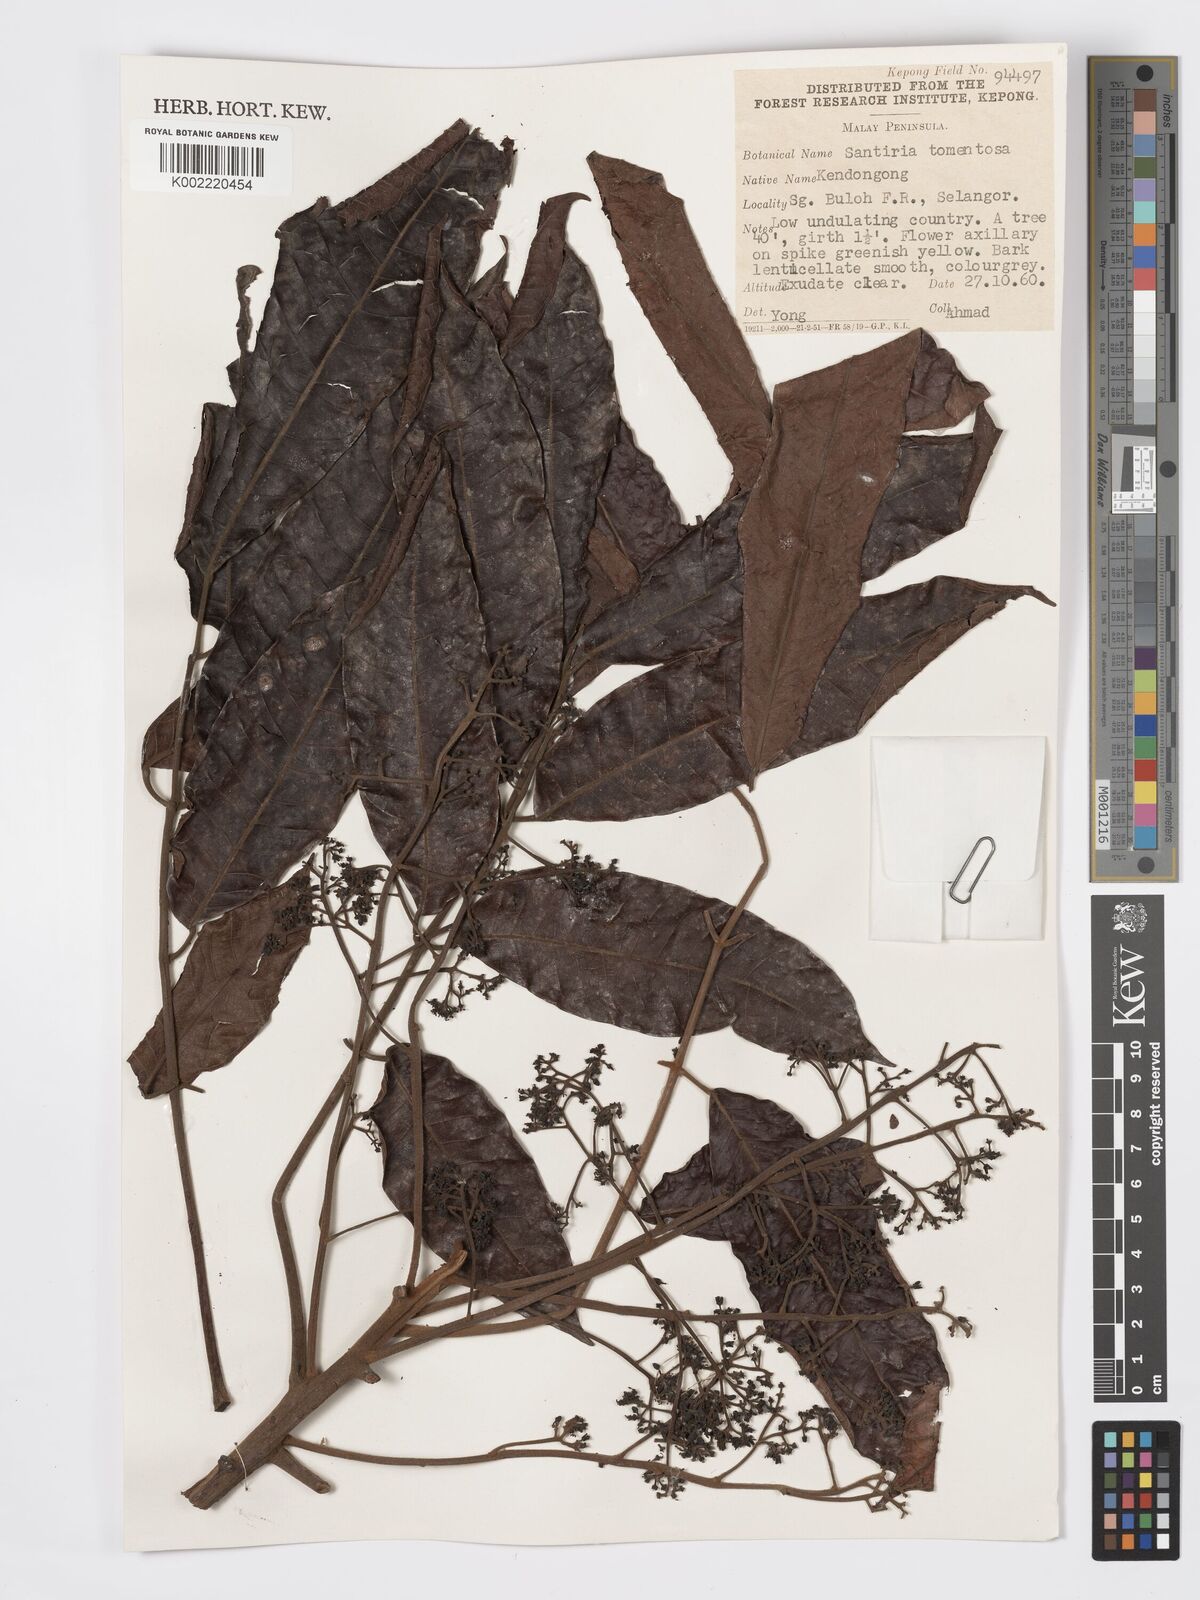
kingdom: Plantae
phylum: Tracheophyta
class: Magnoliopsida
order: Sapindales
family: Burseraceae
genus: Santiria
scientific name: Santiria tomentosa
